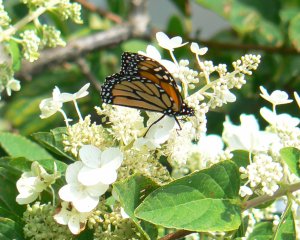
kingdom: Animalia
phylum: Arthropoda
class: Insecta
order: Lepidoptera
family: Nymphalidae
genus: Danaus
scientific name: Danaus plexippus
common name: Monarch
